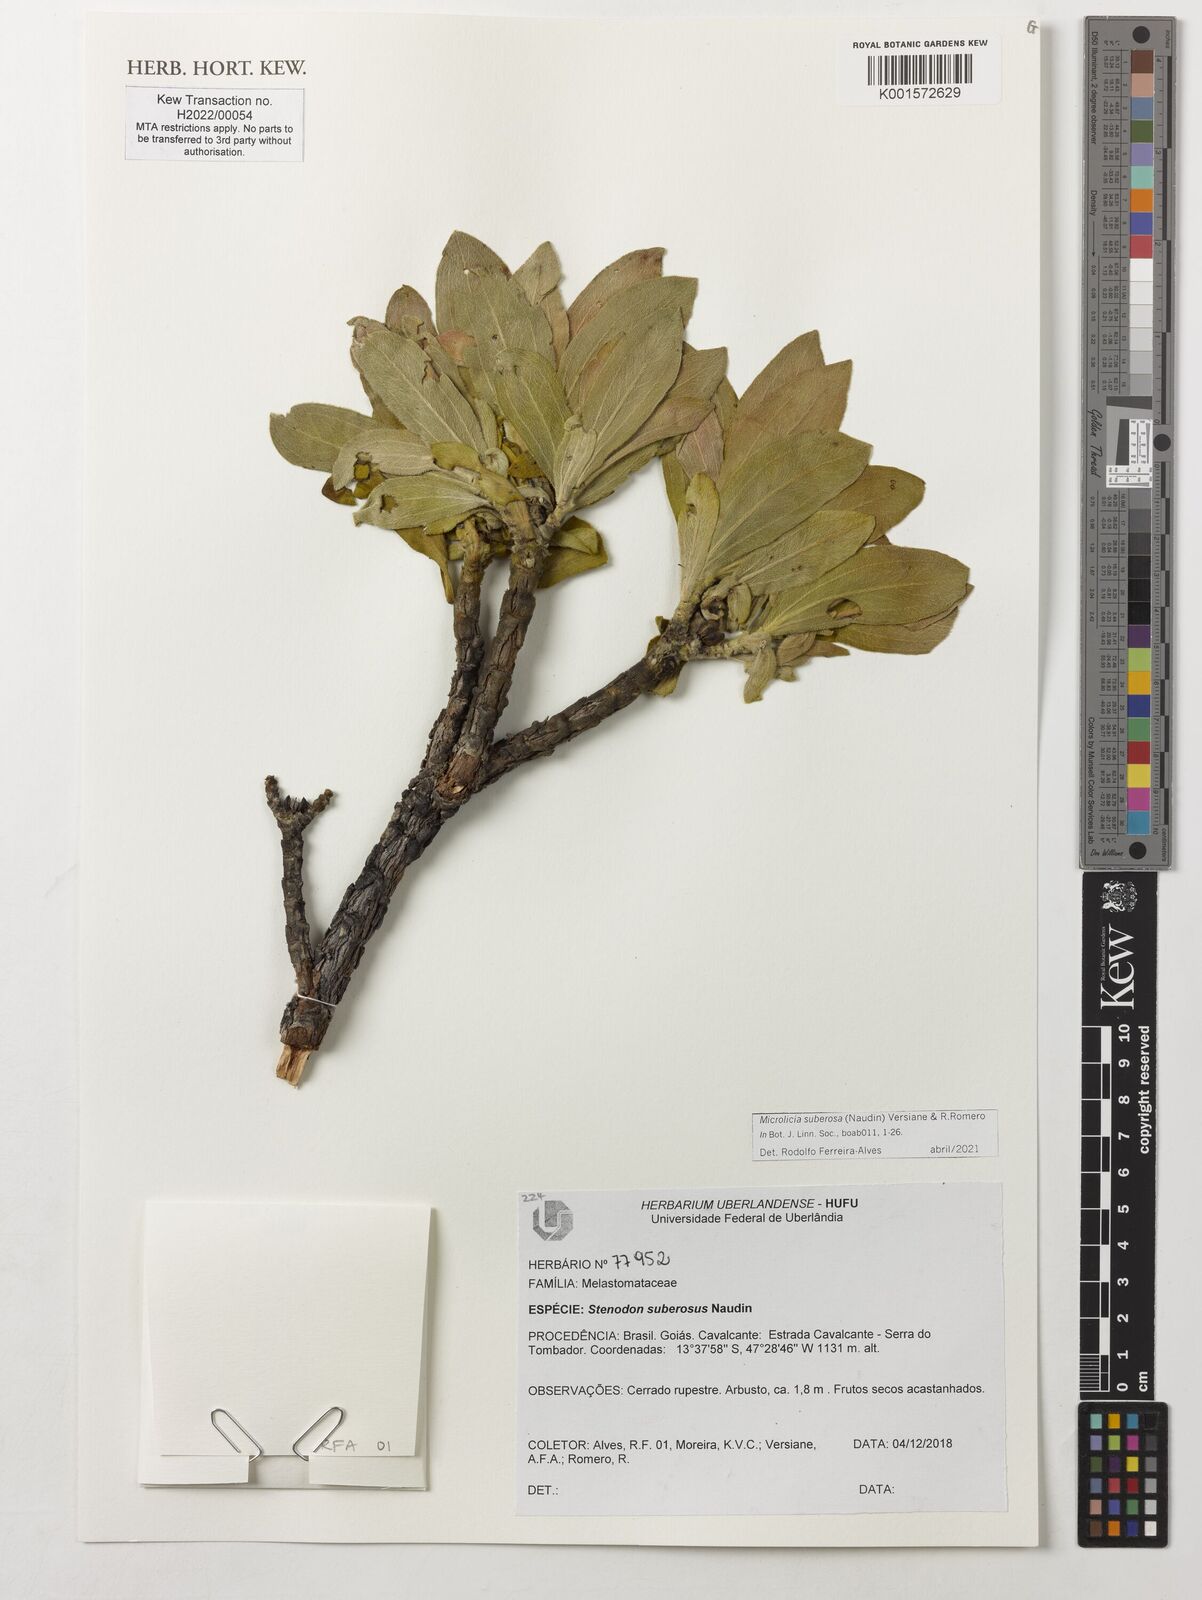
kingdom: Plantae
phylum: Tracheophyta
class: Magnoliopsida
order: Myrtales
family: Melastomataceae
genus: Microlicia
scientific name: Microlicia suberosa
